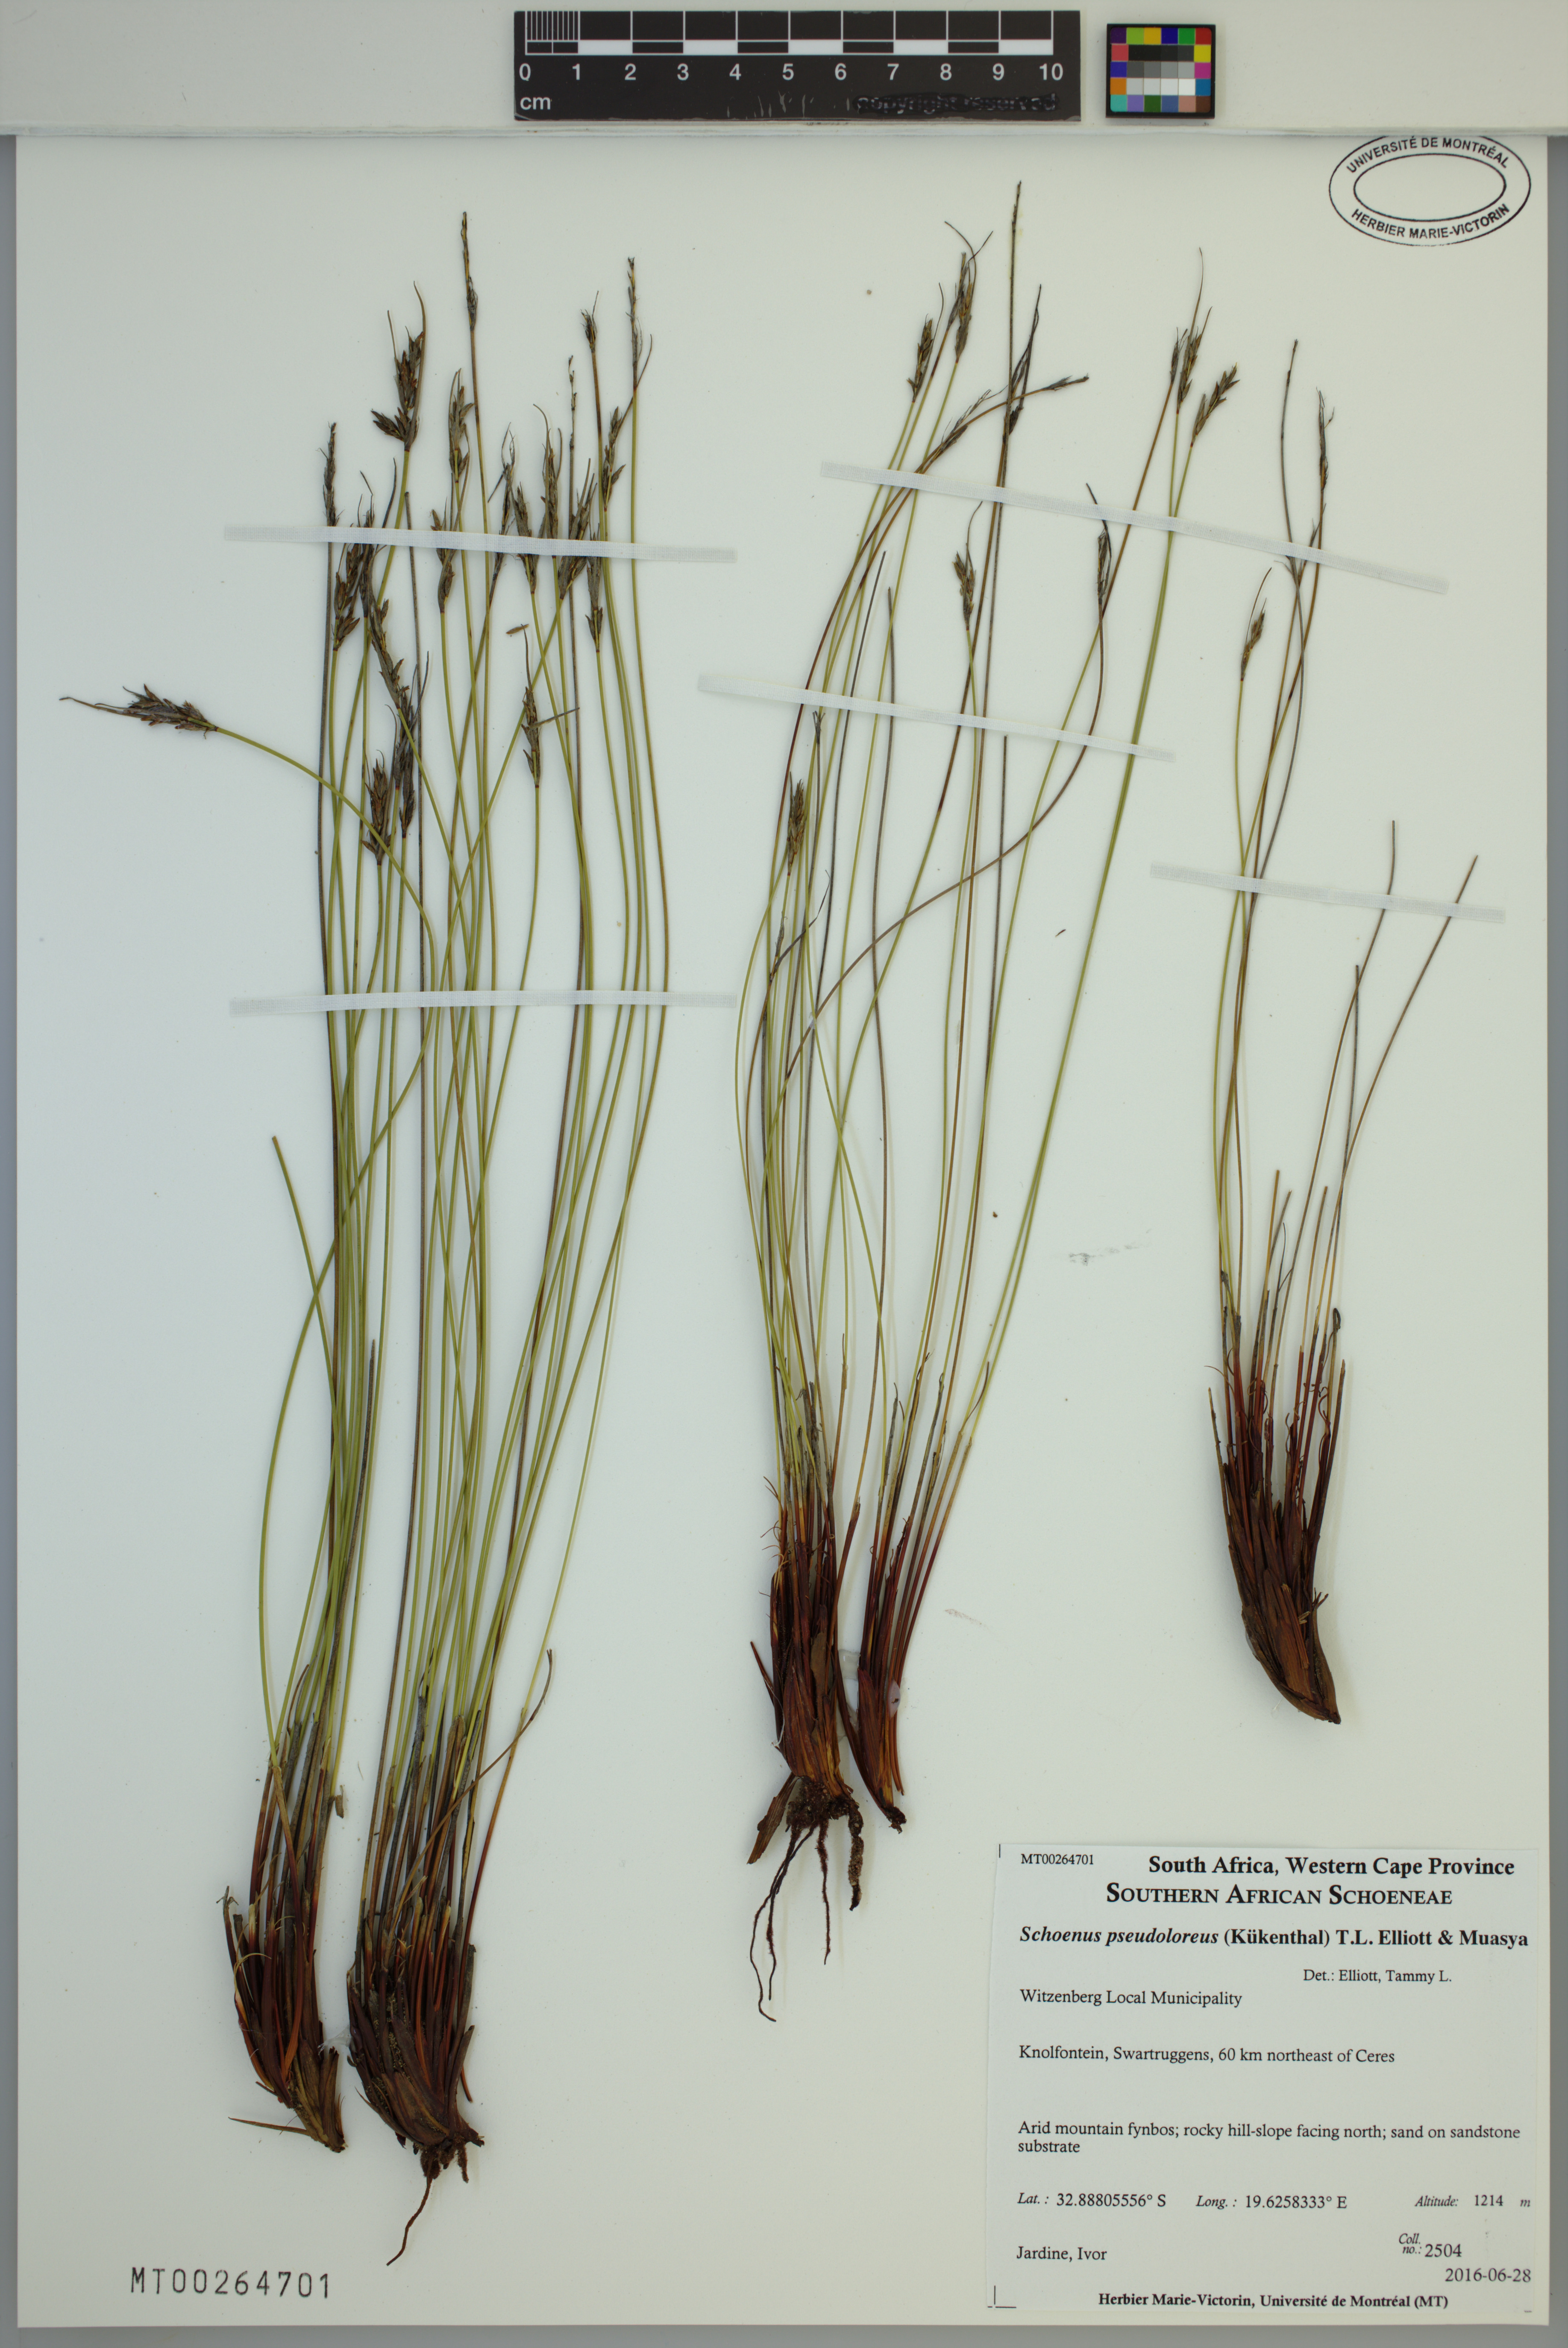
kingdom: Plantae
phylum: Tracheophyta
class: Liliopsida
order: Poales
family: Cyperaceae
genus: Schoenus
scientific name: Schoenus pseudoloreus
